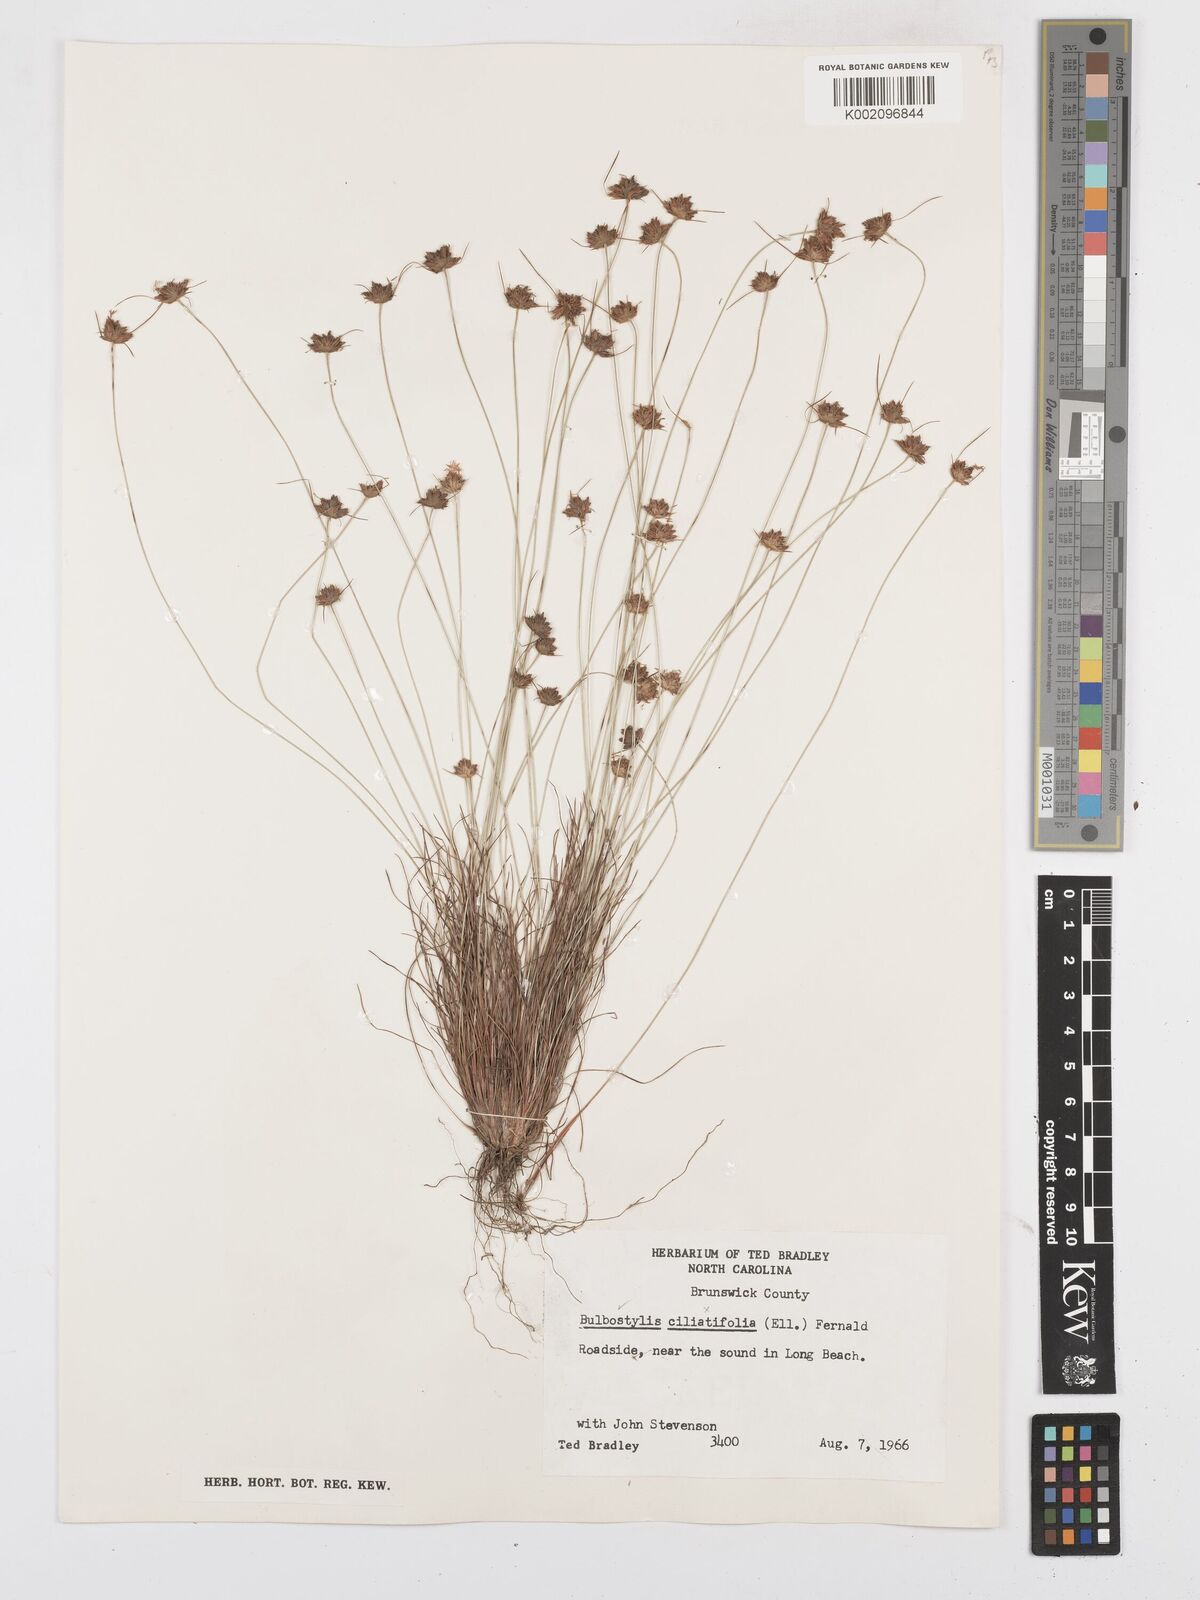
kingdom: Plantae
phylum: Tracheophyta
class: Liliopsida
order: Poales
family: Cyperaceae
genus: Bulbostylis
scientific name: Bulbostylis warei
